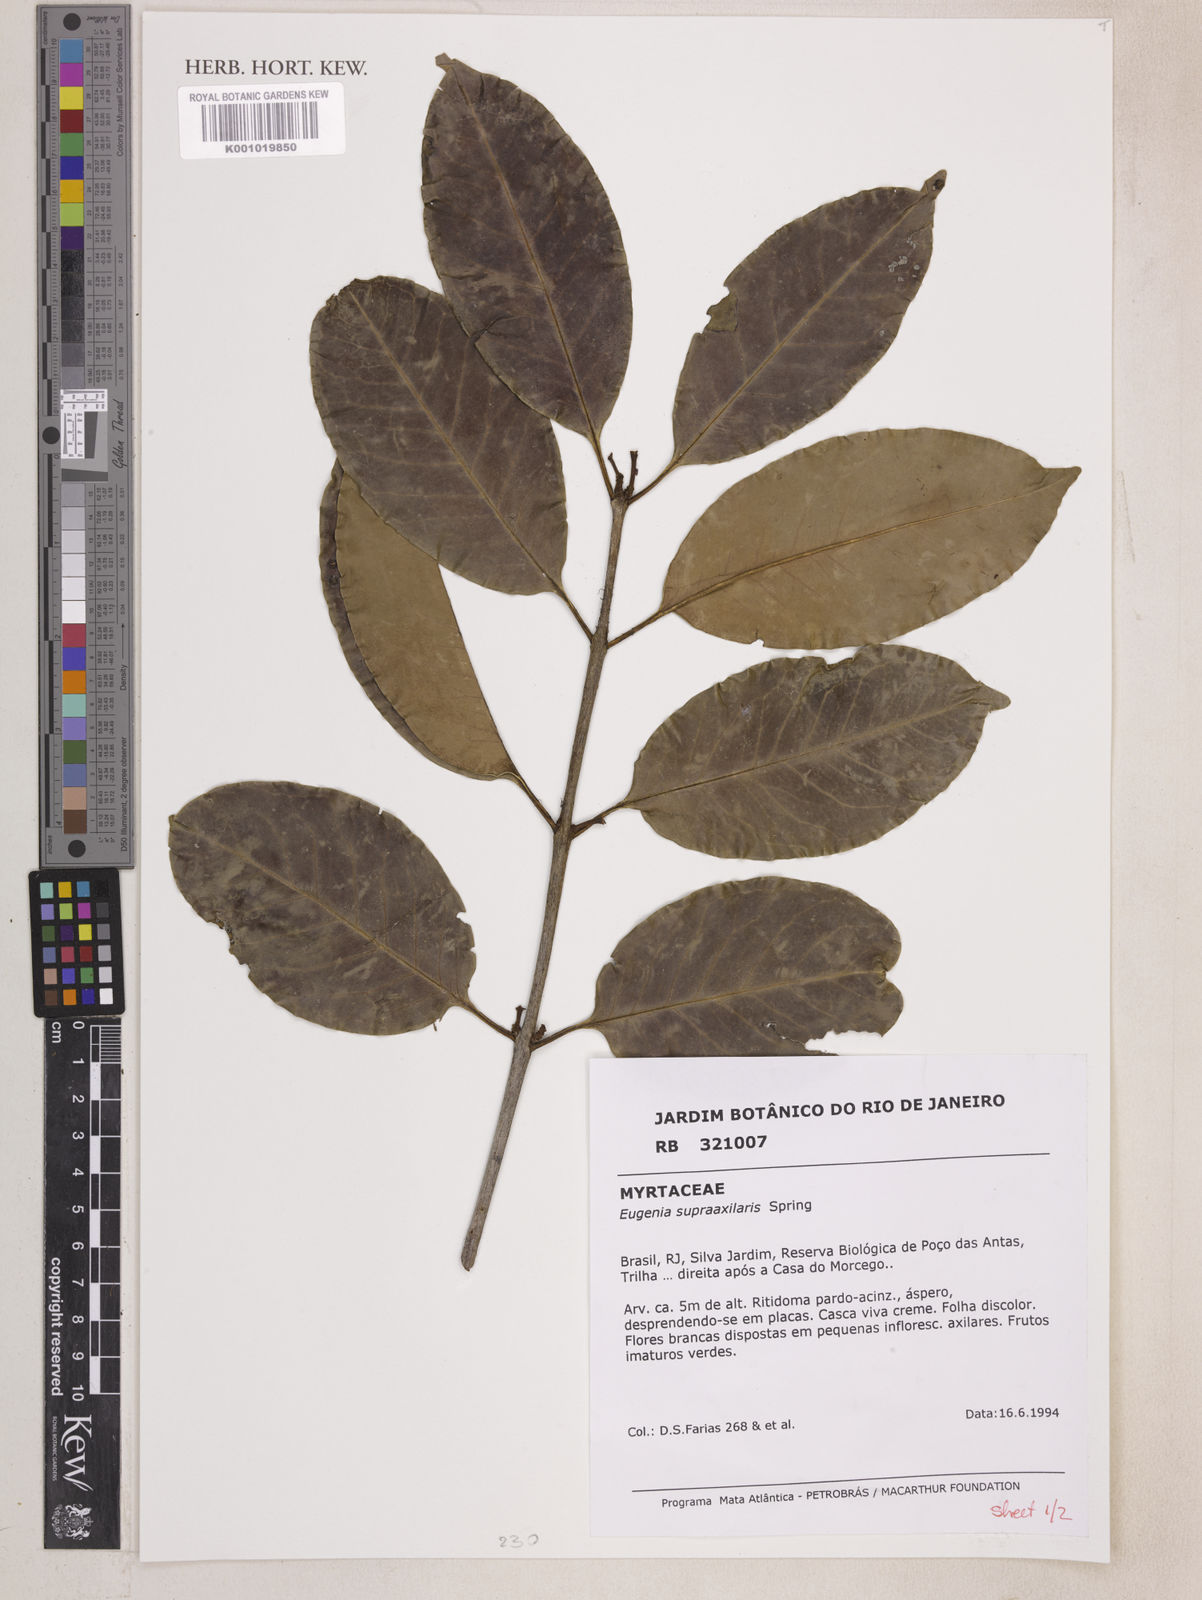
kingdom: Plantae
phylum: Tracheophyta
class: Magnoliopsida
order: Myrtales
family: Myrtaceae
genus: Eugenia
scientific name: Eugenia
